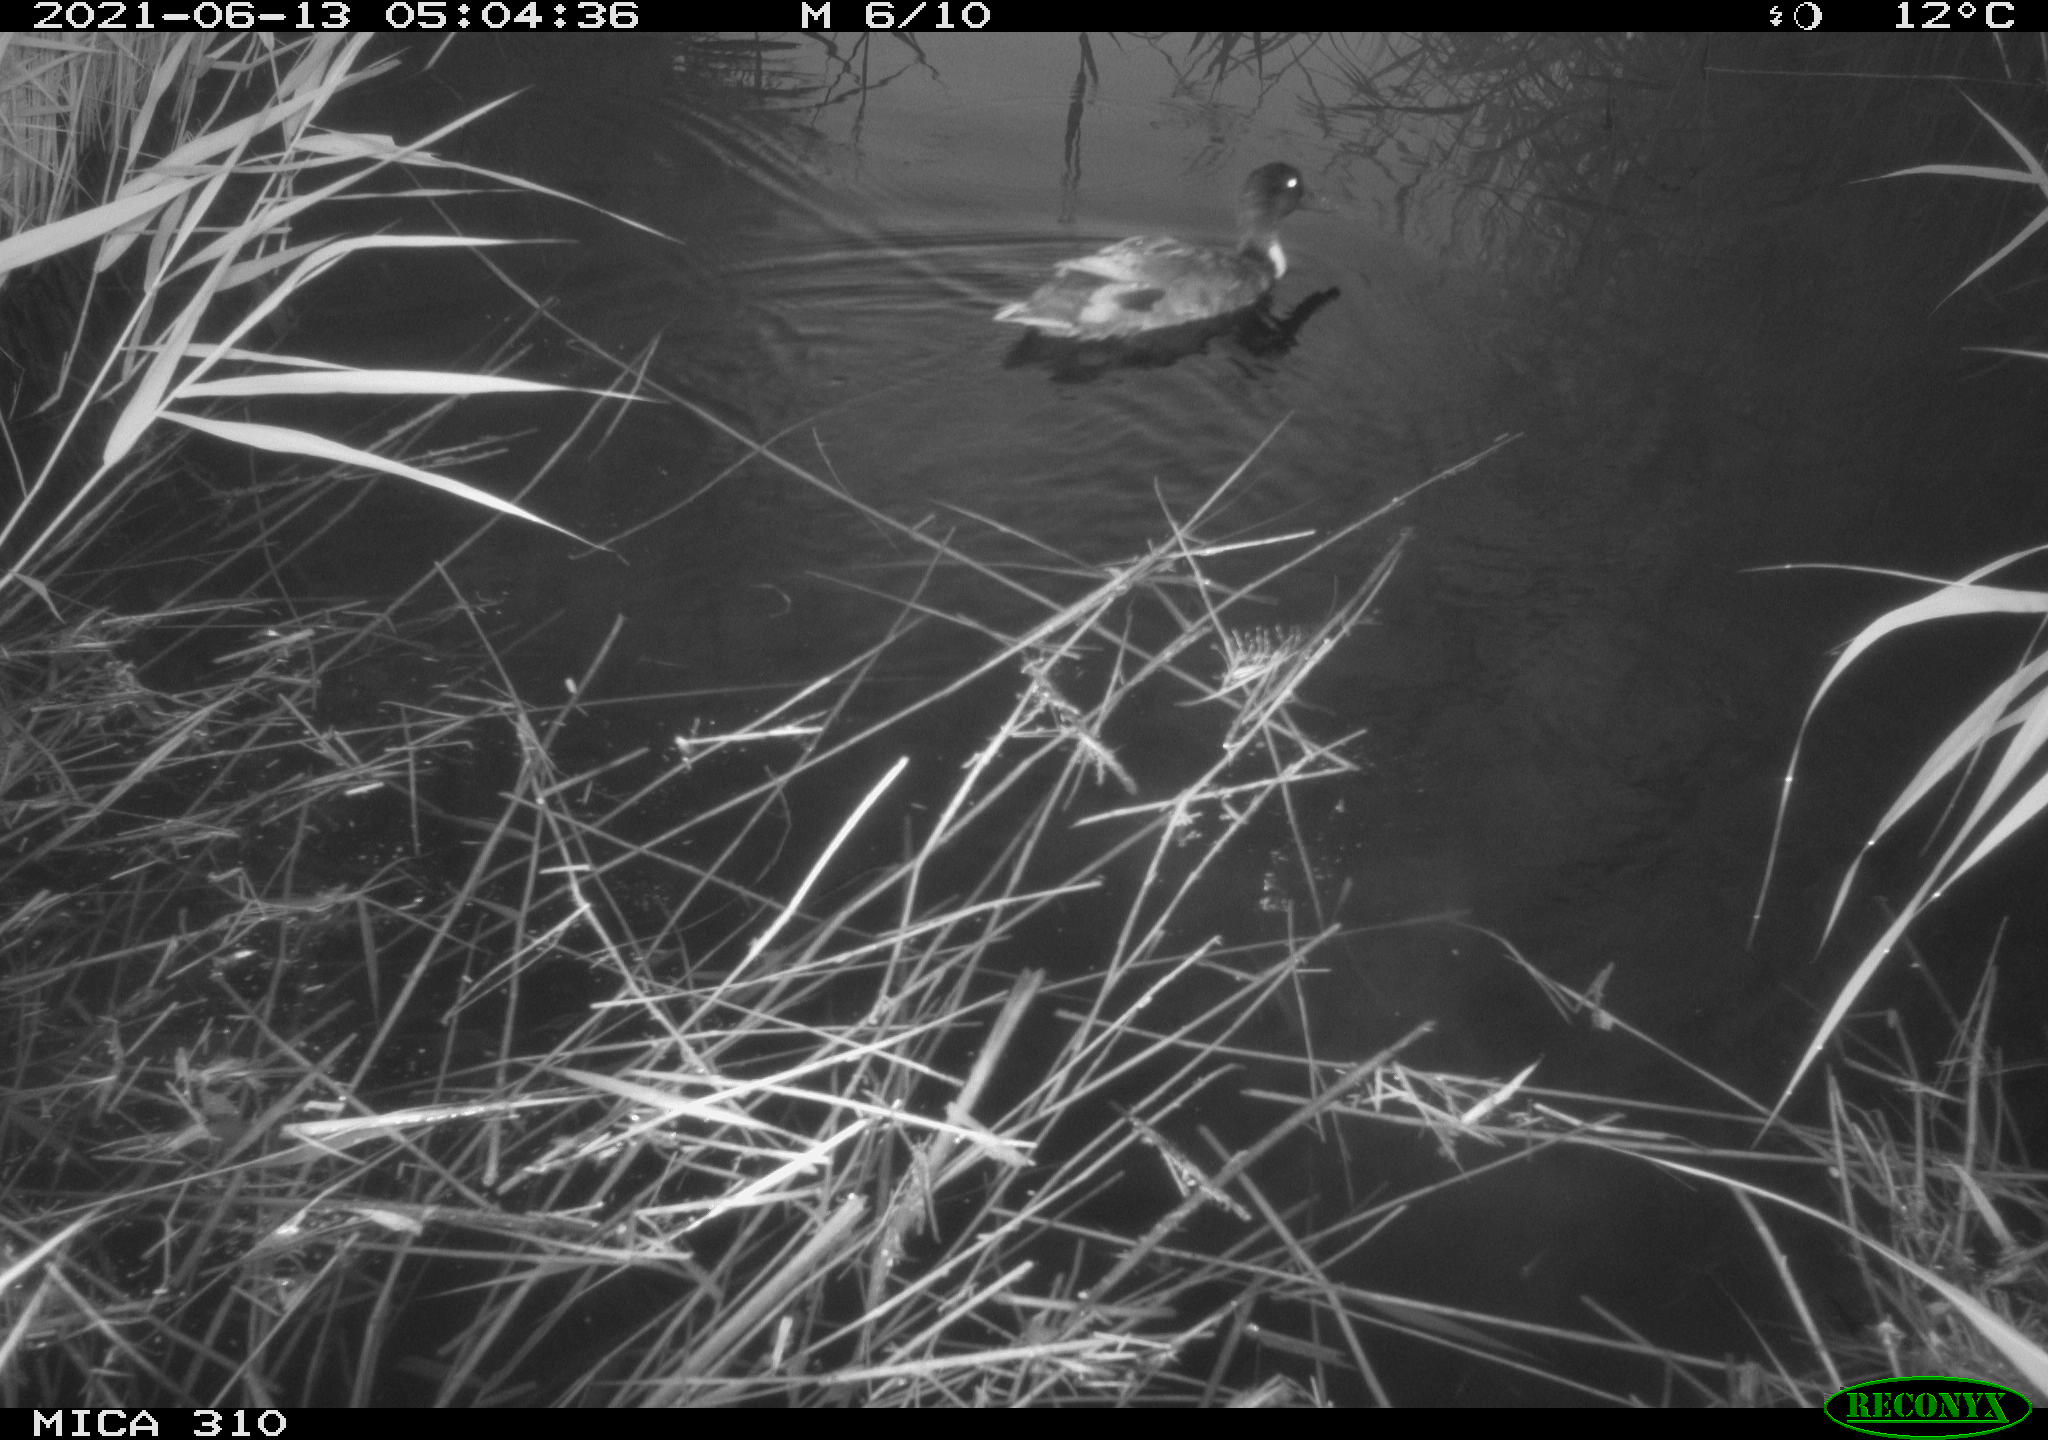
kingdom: Animalia
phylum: Chordata
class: Aves
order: Anseriformes
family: Anatidae
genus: Anas
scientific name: Anas
